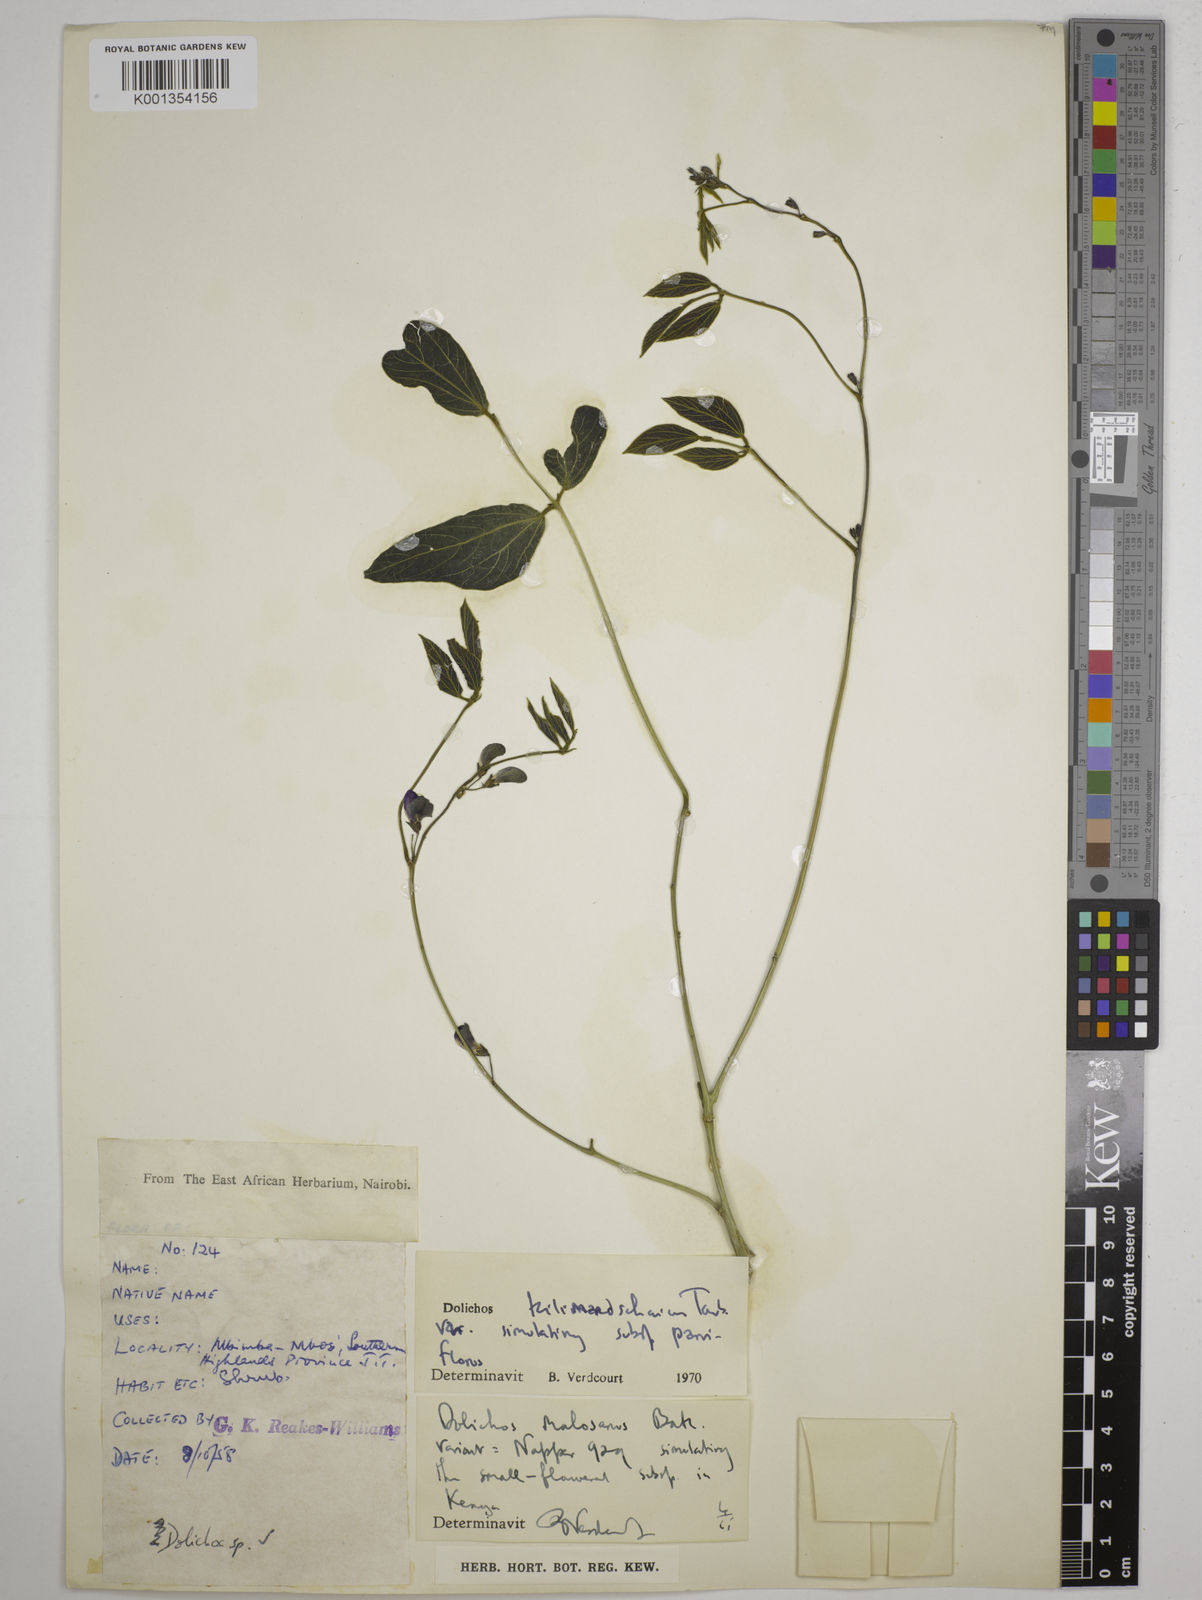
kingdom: Plantae
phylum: Tracheophyta
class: Magnoliopsida
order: Fabales
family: Fabaceae
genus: Dolichos
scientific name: Dolichos
